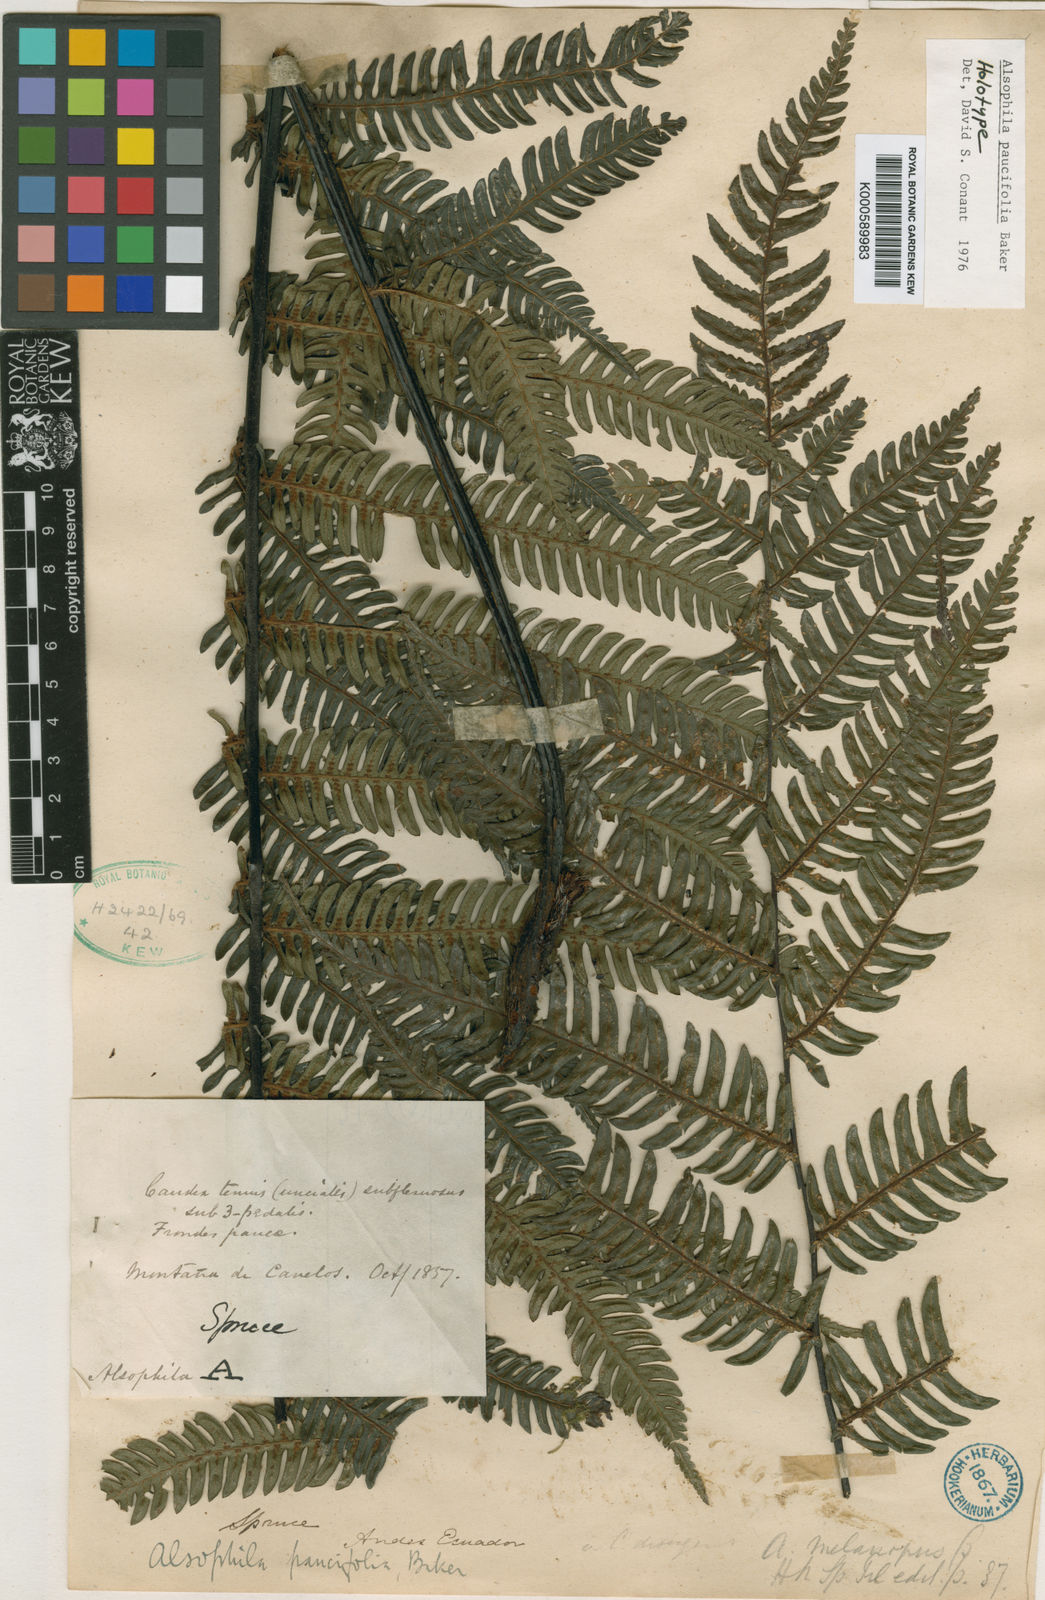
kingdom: Plantae
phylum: Tracheophyta
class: Polypodiopsida
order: Cyatheales
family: Cyatheaceae
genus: Cyathea
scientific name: Cyathea paucifolia
